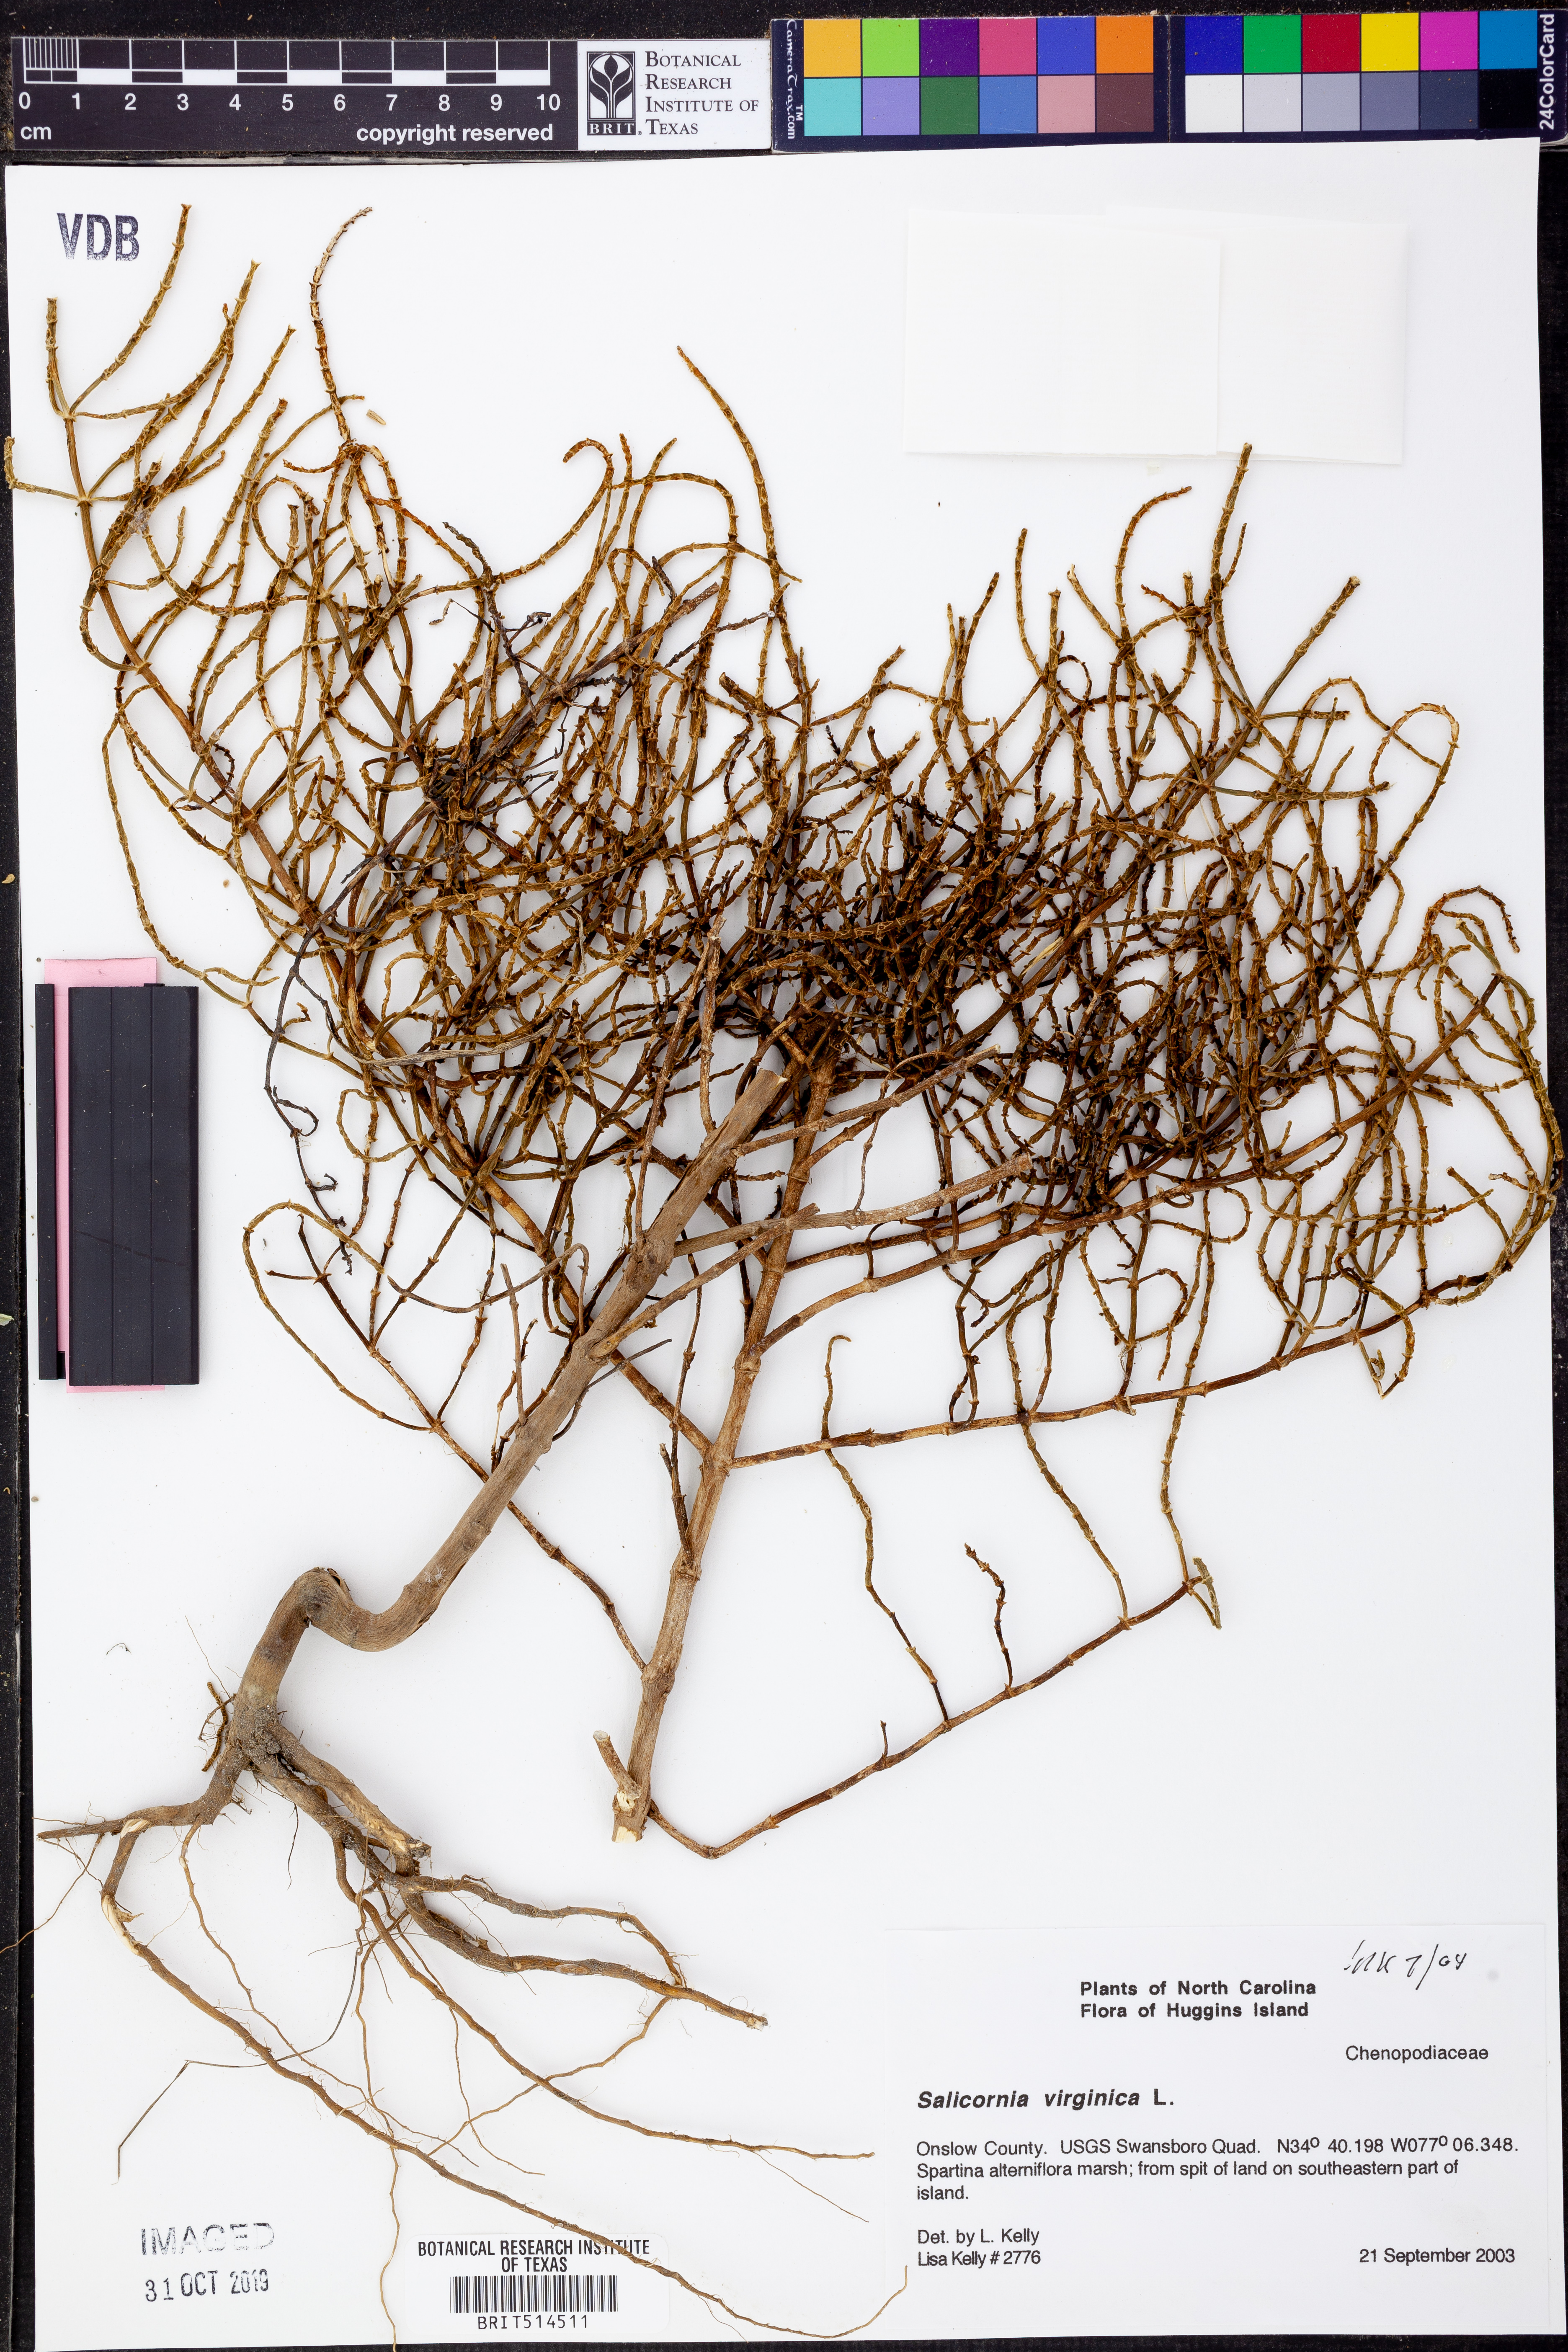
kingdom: Plantae
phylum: Tracheophyta
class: Magnoliopsida
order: Caryophyllales
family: Amaranthaceae
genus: Salicornia
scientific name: Salicornia virginica
